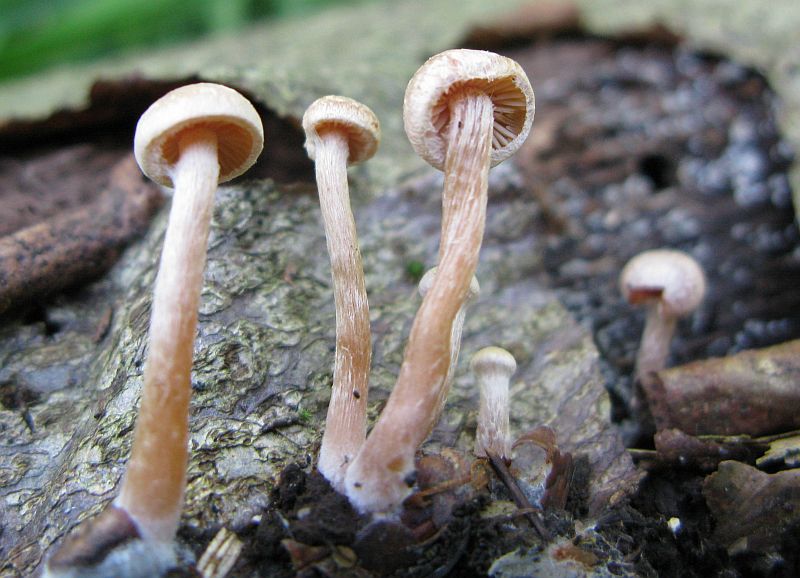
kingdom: Fungi
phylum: Basidiomycota
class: Agaricomycetes
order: Agaricales
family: Tubariaceae
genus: Tubaria
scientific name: Tubaria conspersa
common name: bleg fnughat
